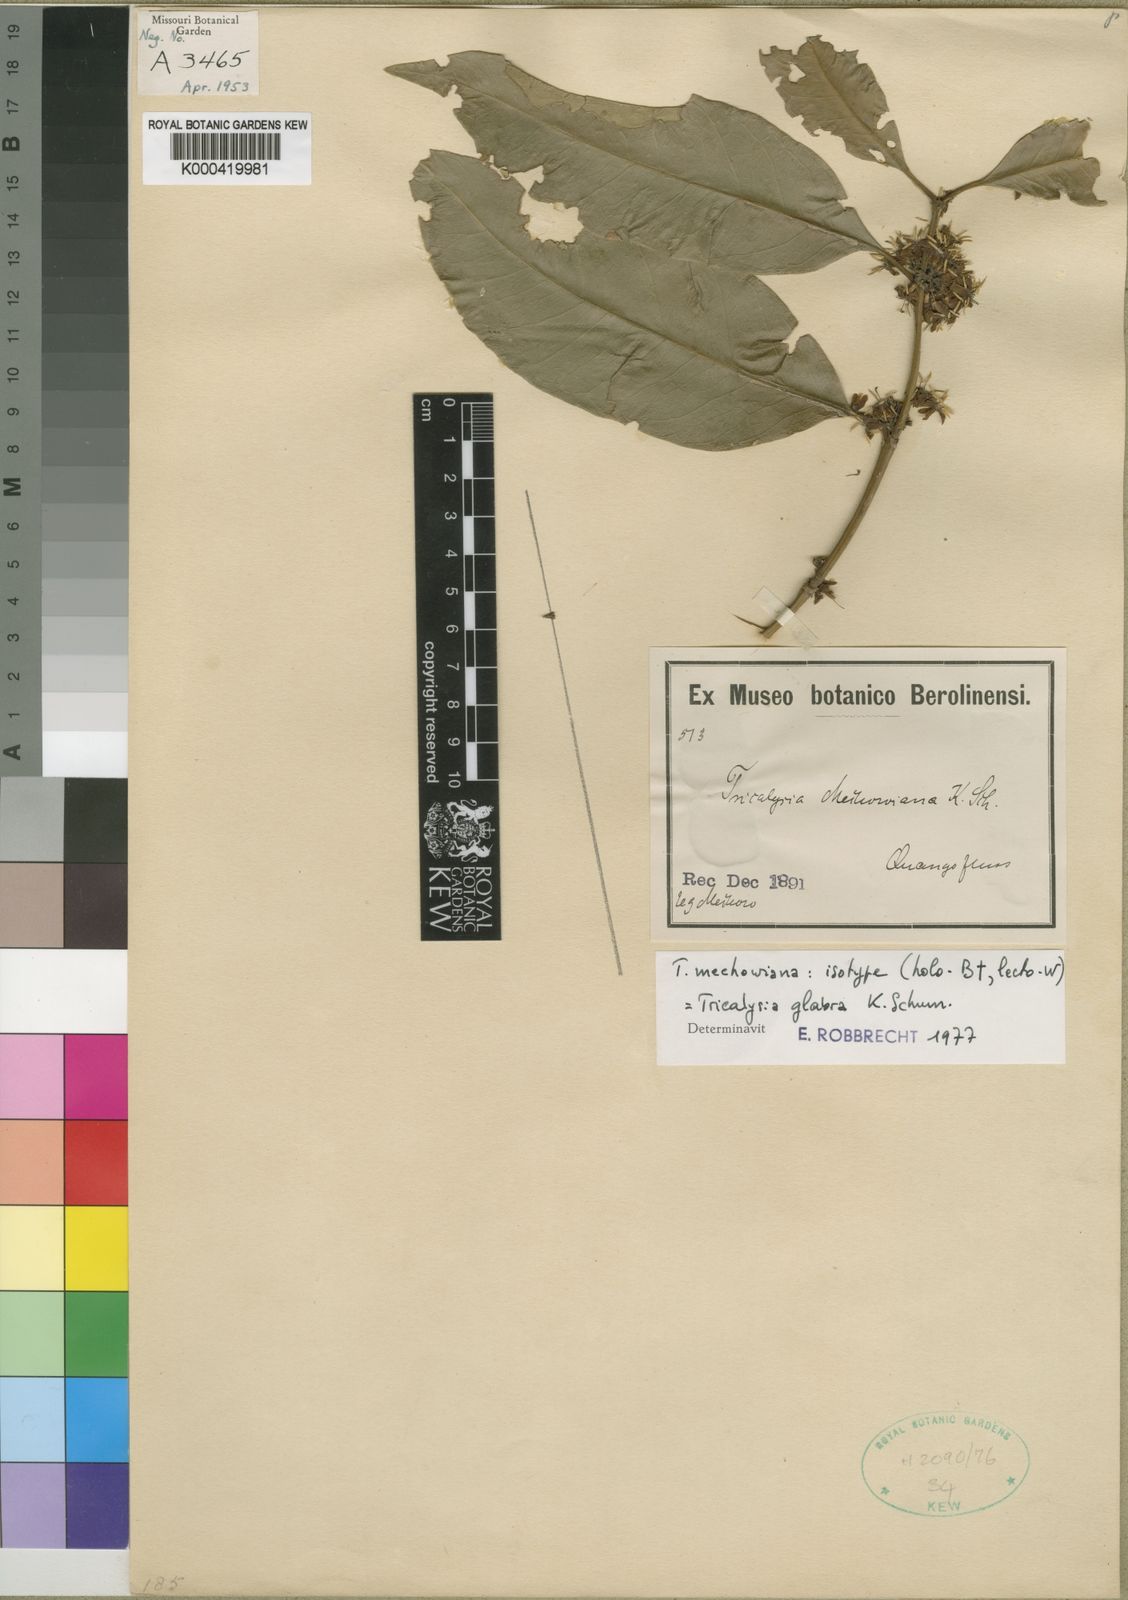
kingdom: Plantae
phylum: Tracheophyta
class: Magnoliopsida
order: Gentianales
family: Rubiaceae
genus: Empogona
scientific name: Empogona glabra
